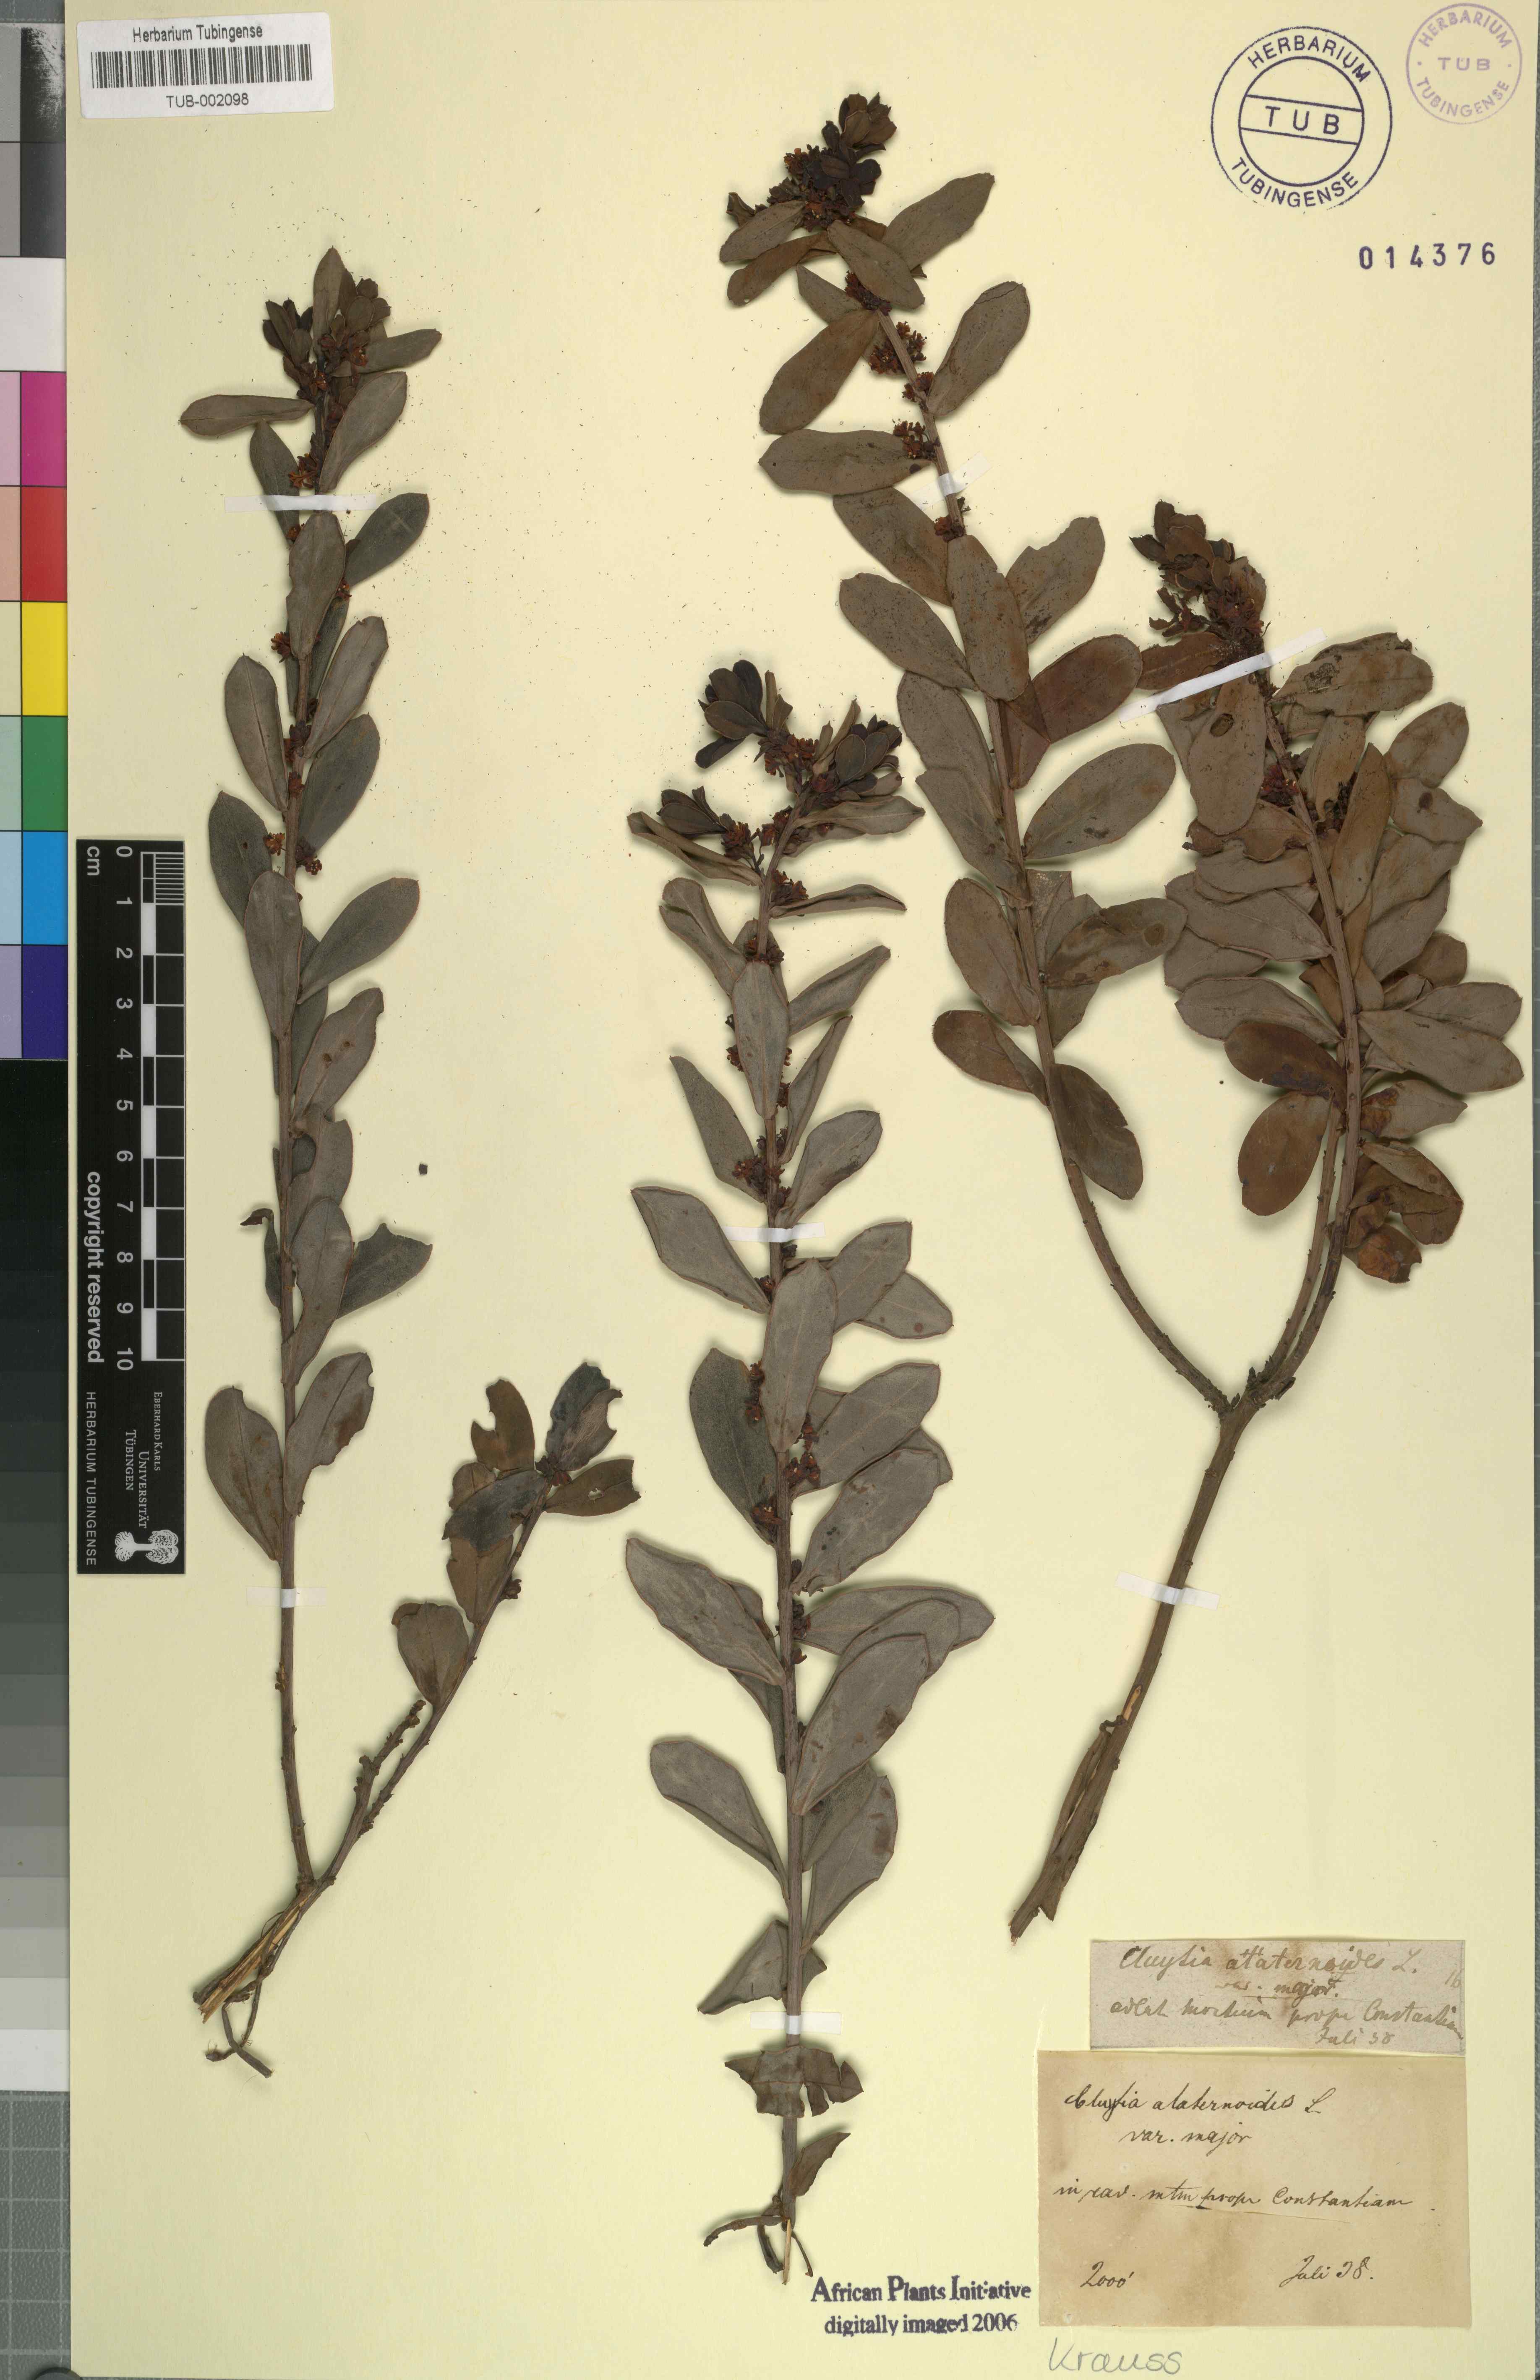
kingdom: Plantae
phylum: Tracheophyta
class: Magnoliopsida
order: Malpighiales
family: Peraceae
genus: Clutia
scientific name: Clutia alaternoides
